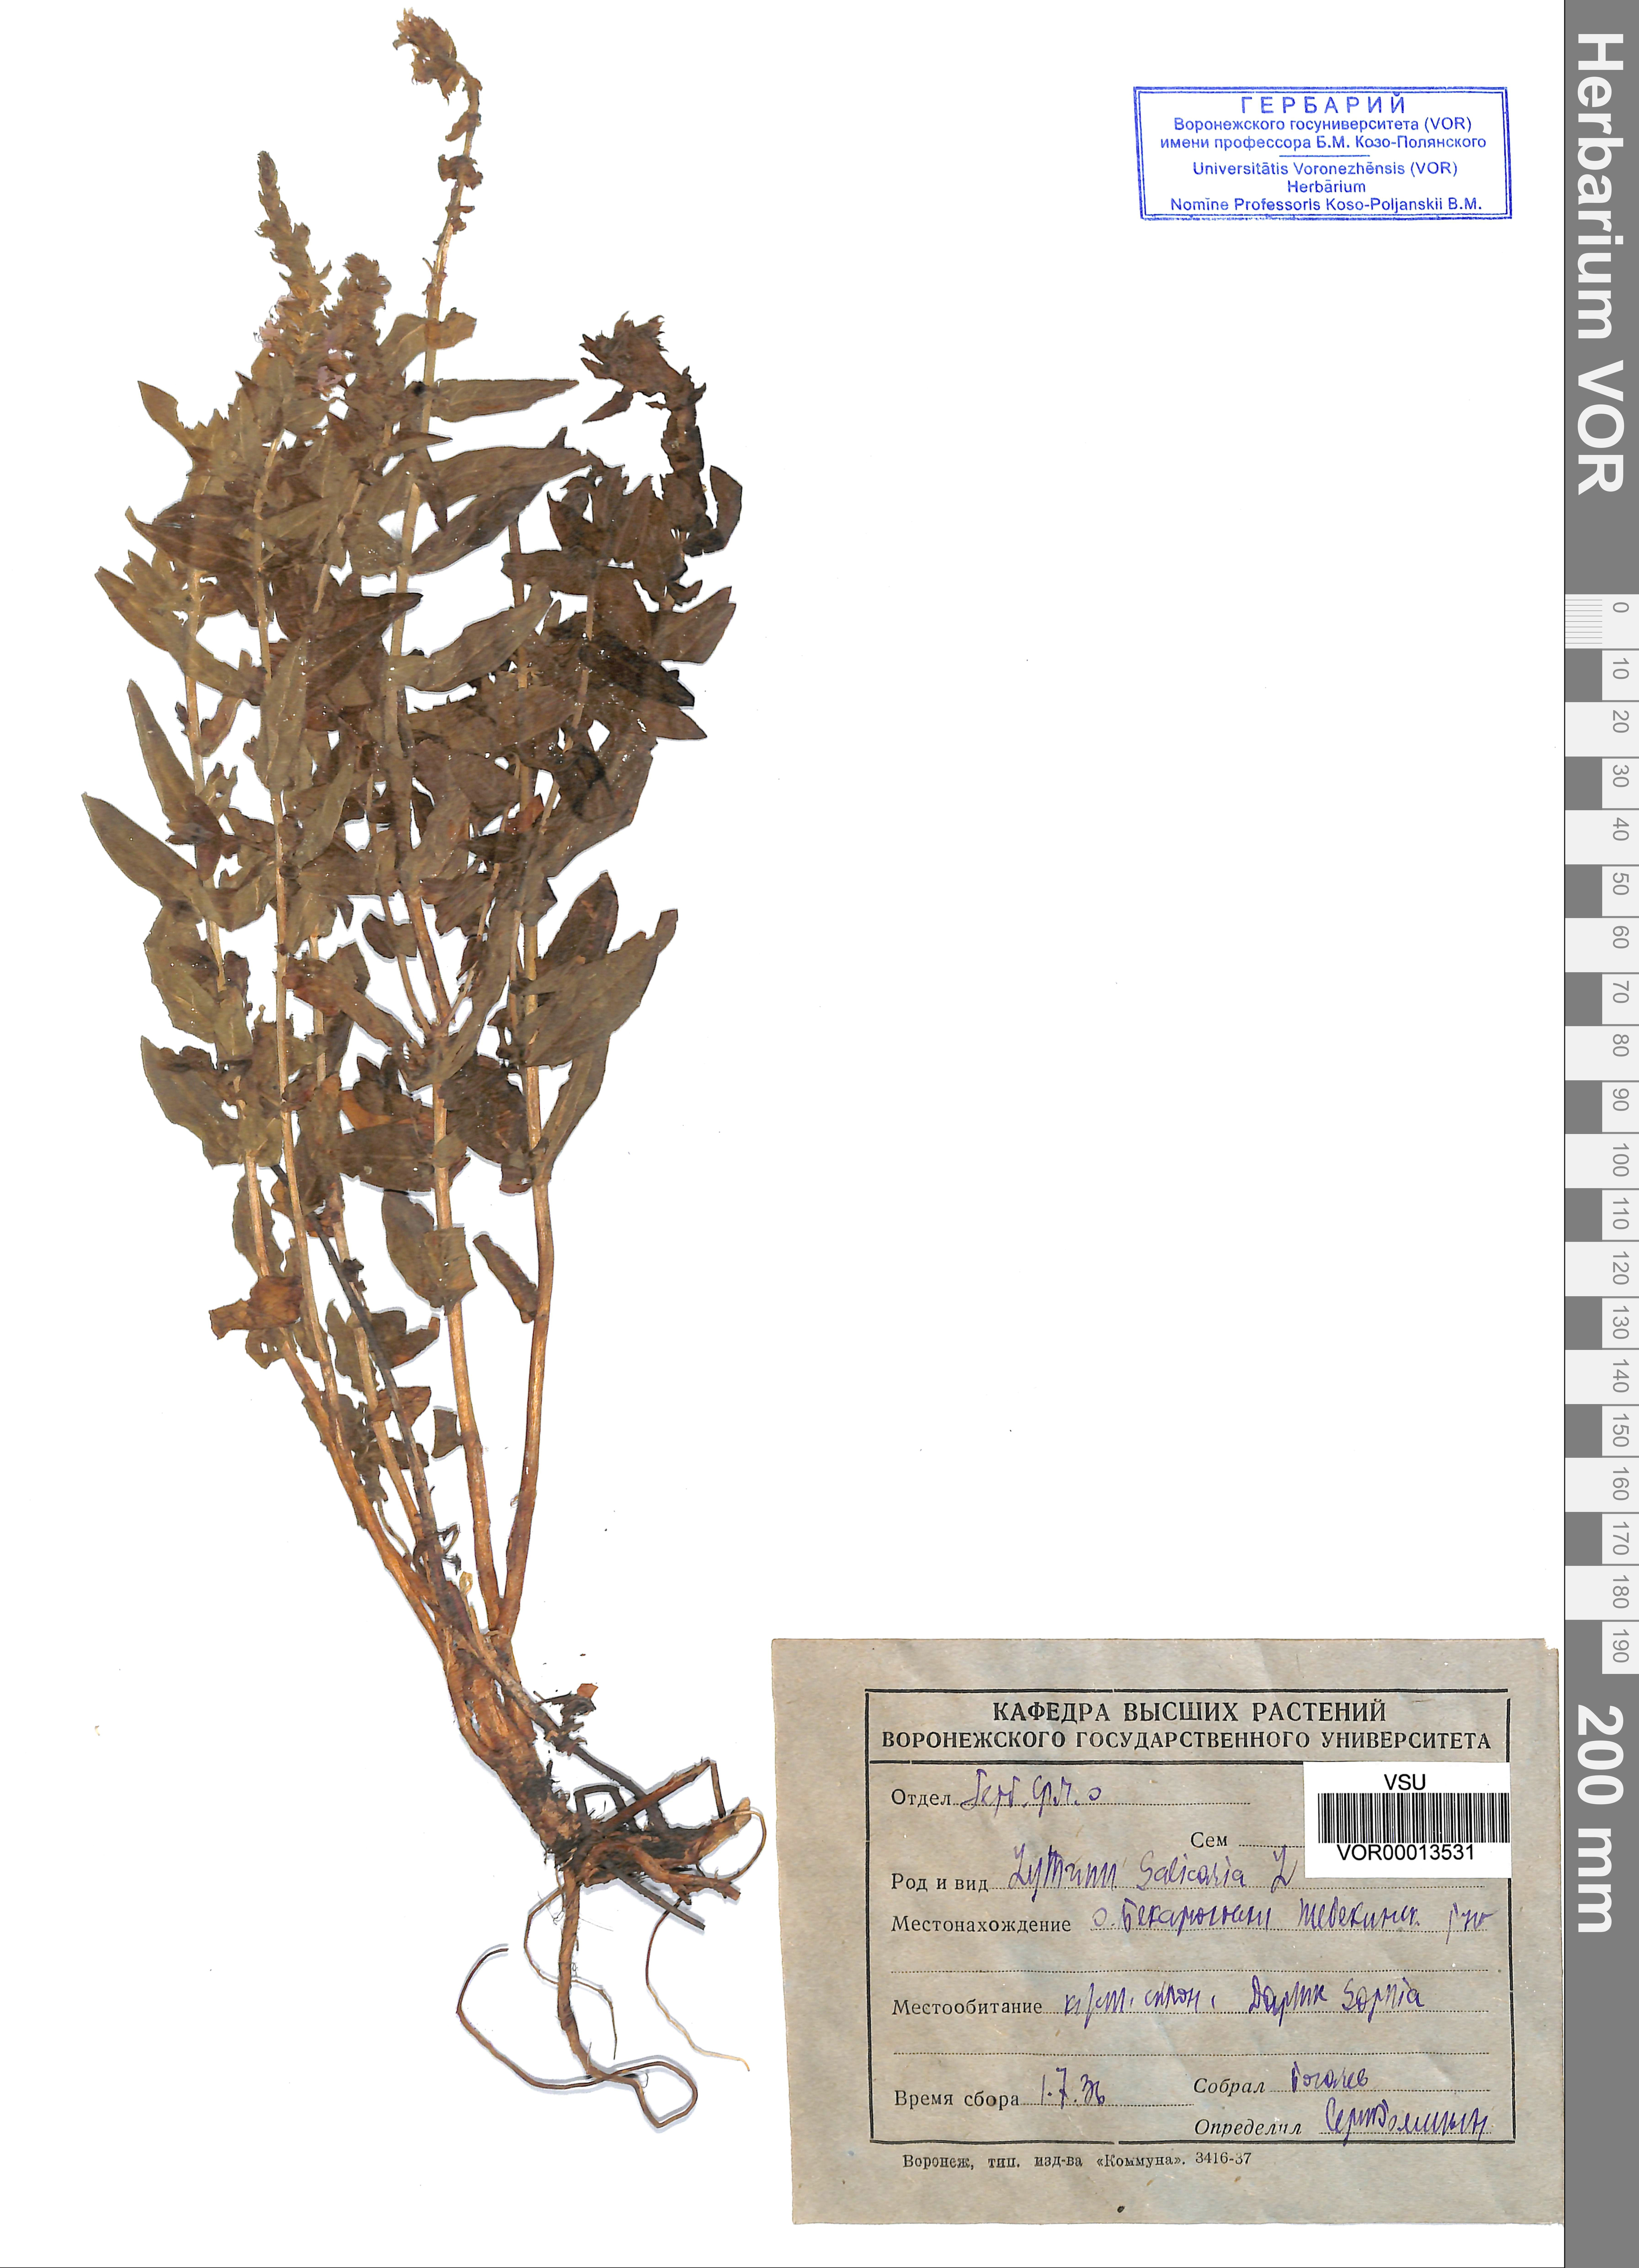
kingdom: Plantae
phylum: Tracheophyta
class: Magnoliopsida
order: Myrtales
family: Lythraceae
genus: Lythrum
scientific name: Lythrum salicaria
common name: Purple loosestrife
